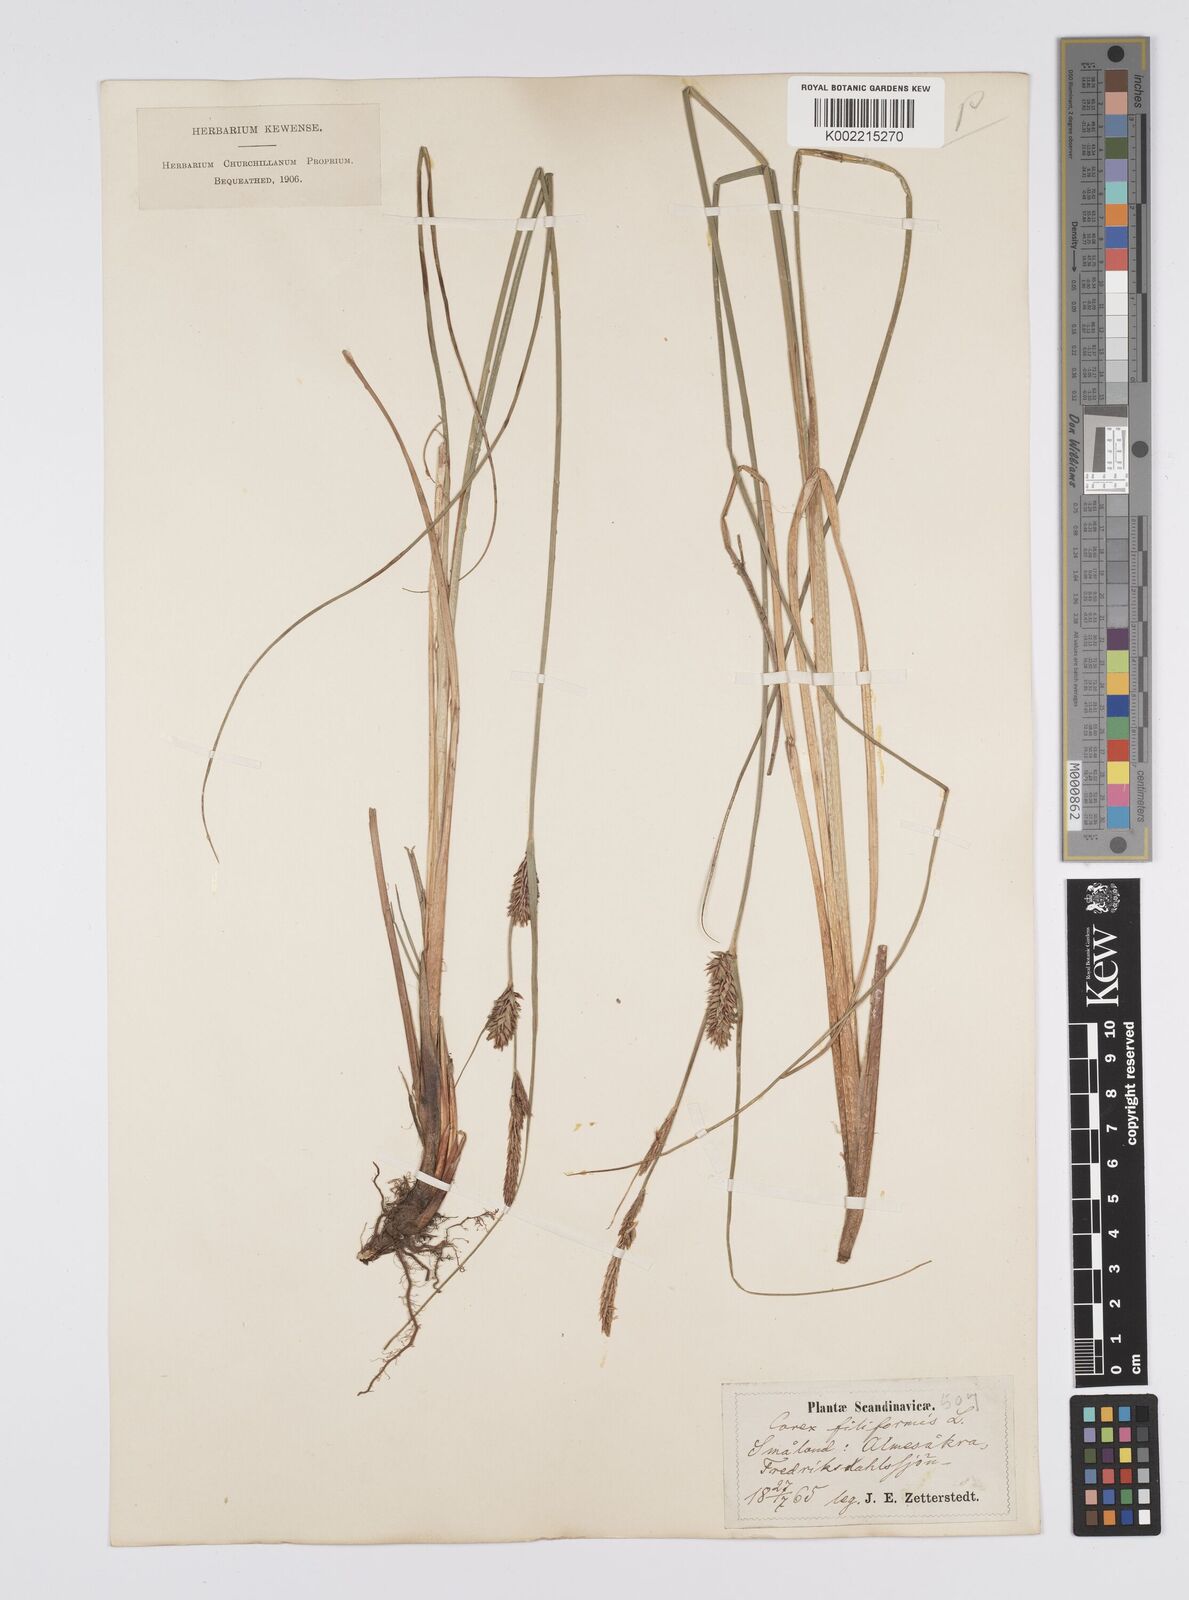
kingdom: Plantae
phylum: Tracheophyta
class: Liliopsida
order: Poales
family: Cyperaceae
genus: Carex
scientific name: Carex lasiocarpa
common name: Slender sedge
